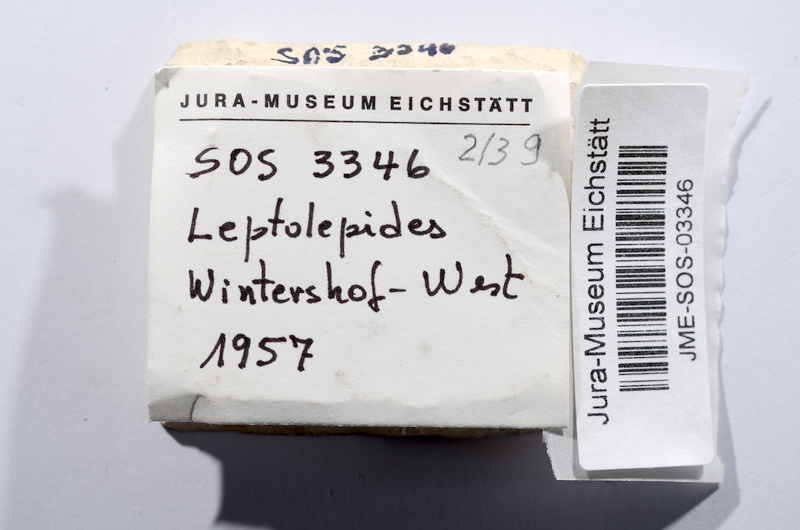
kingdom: Animalia
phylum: Chordata
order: Salmoniformes
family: Orthogonikleithridae
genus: Leptolepides
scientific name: Leptolepides sprattiformis
